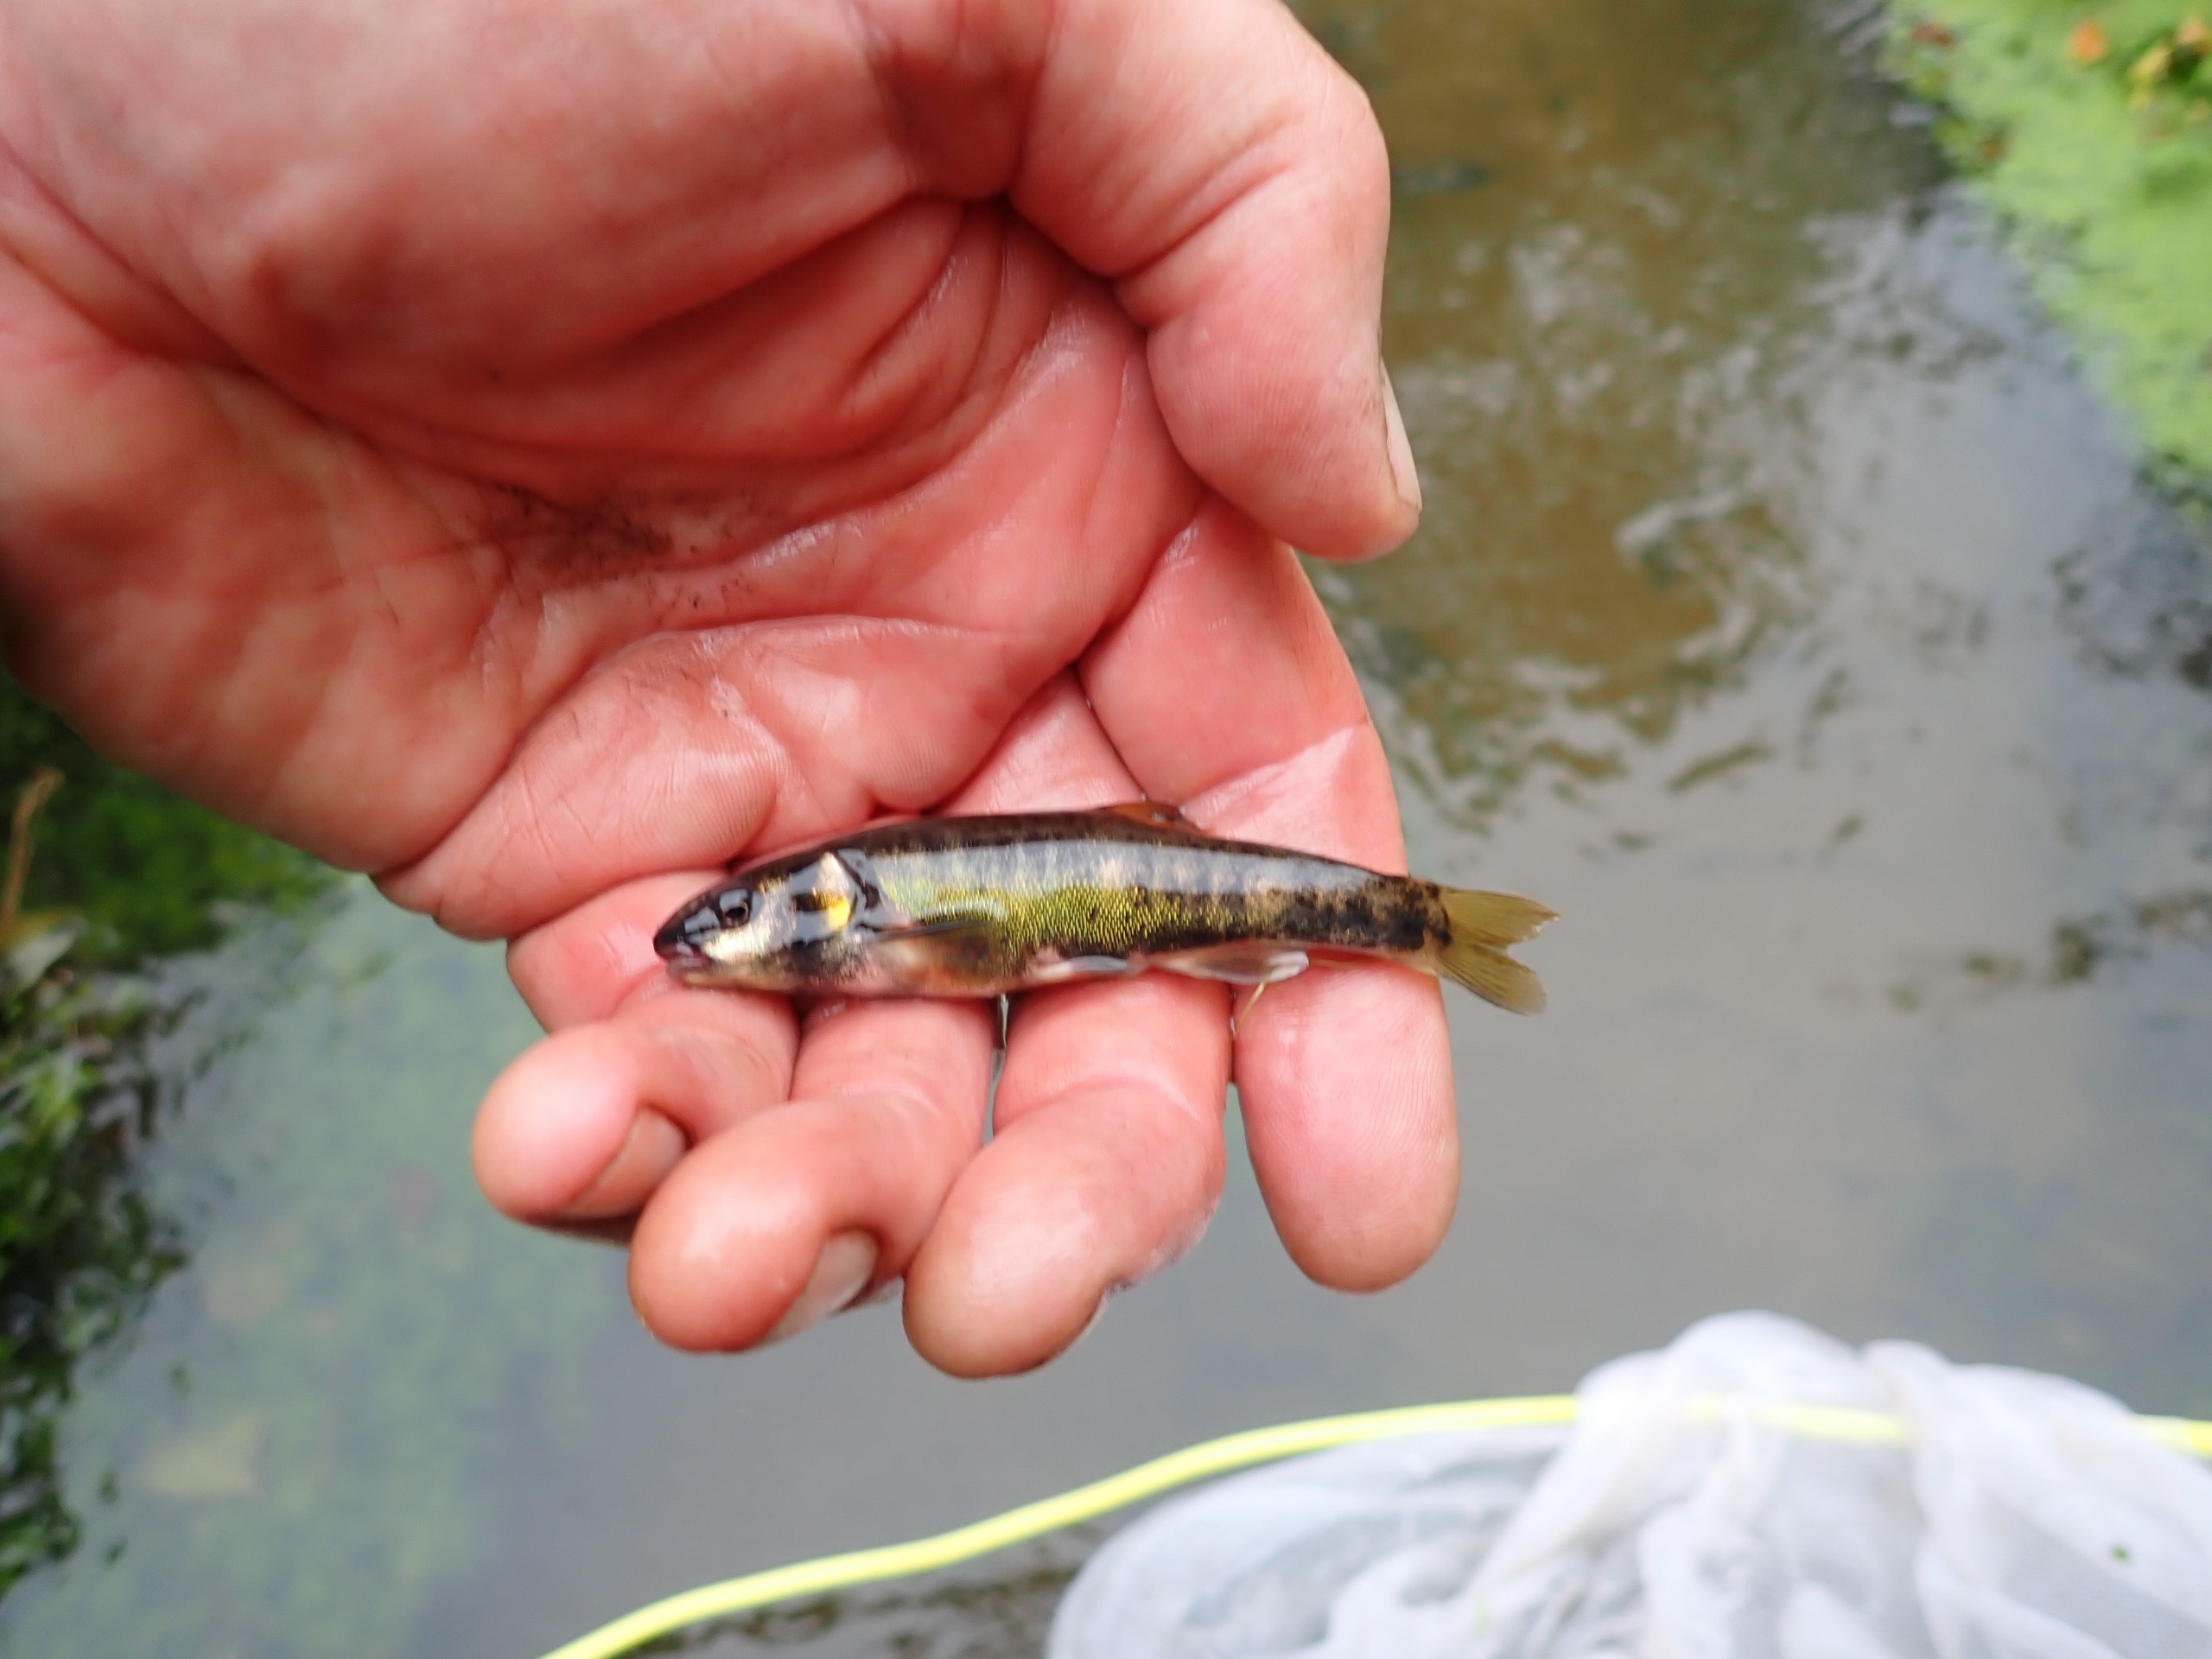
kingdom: Animalia
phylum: Chordata
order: Cypriniformes
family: Cyprinidae
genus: Phoxinus
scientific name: Phoxinus phoxinus
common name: Elritse
